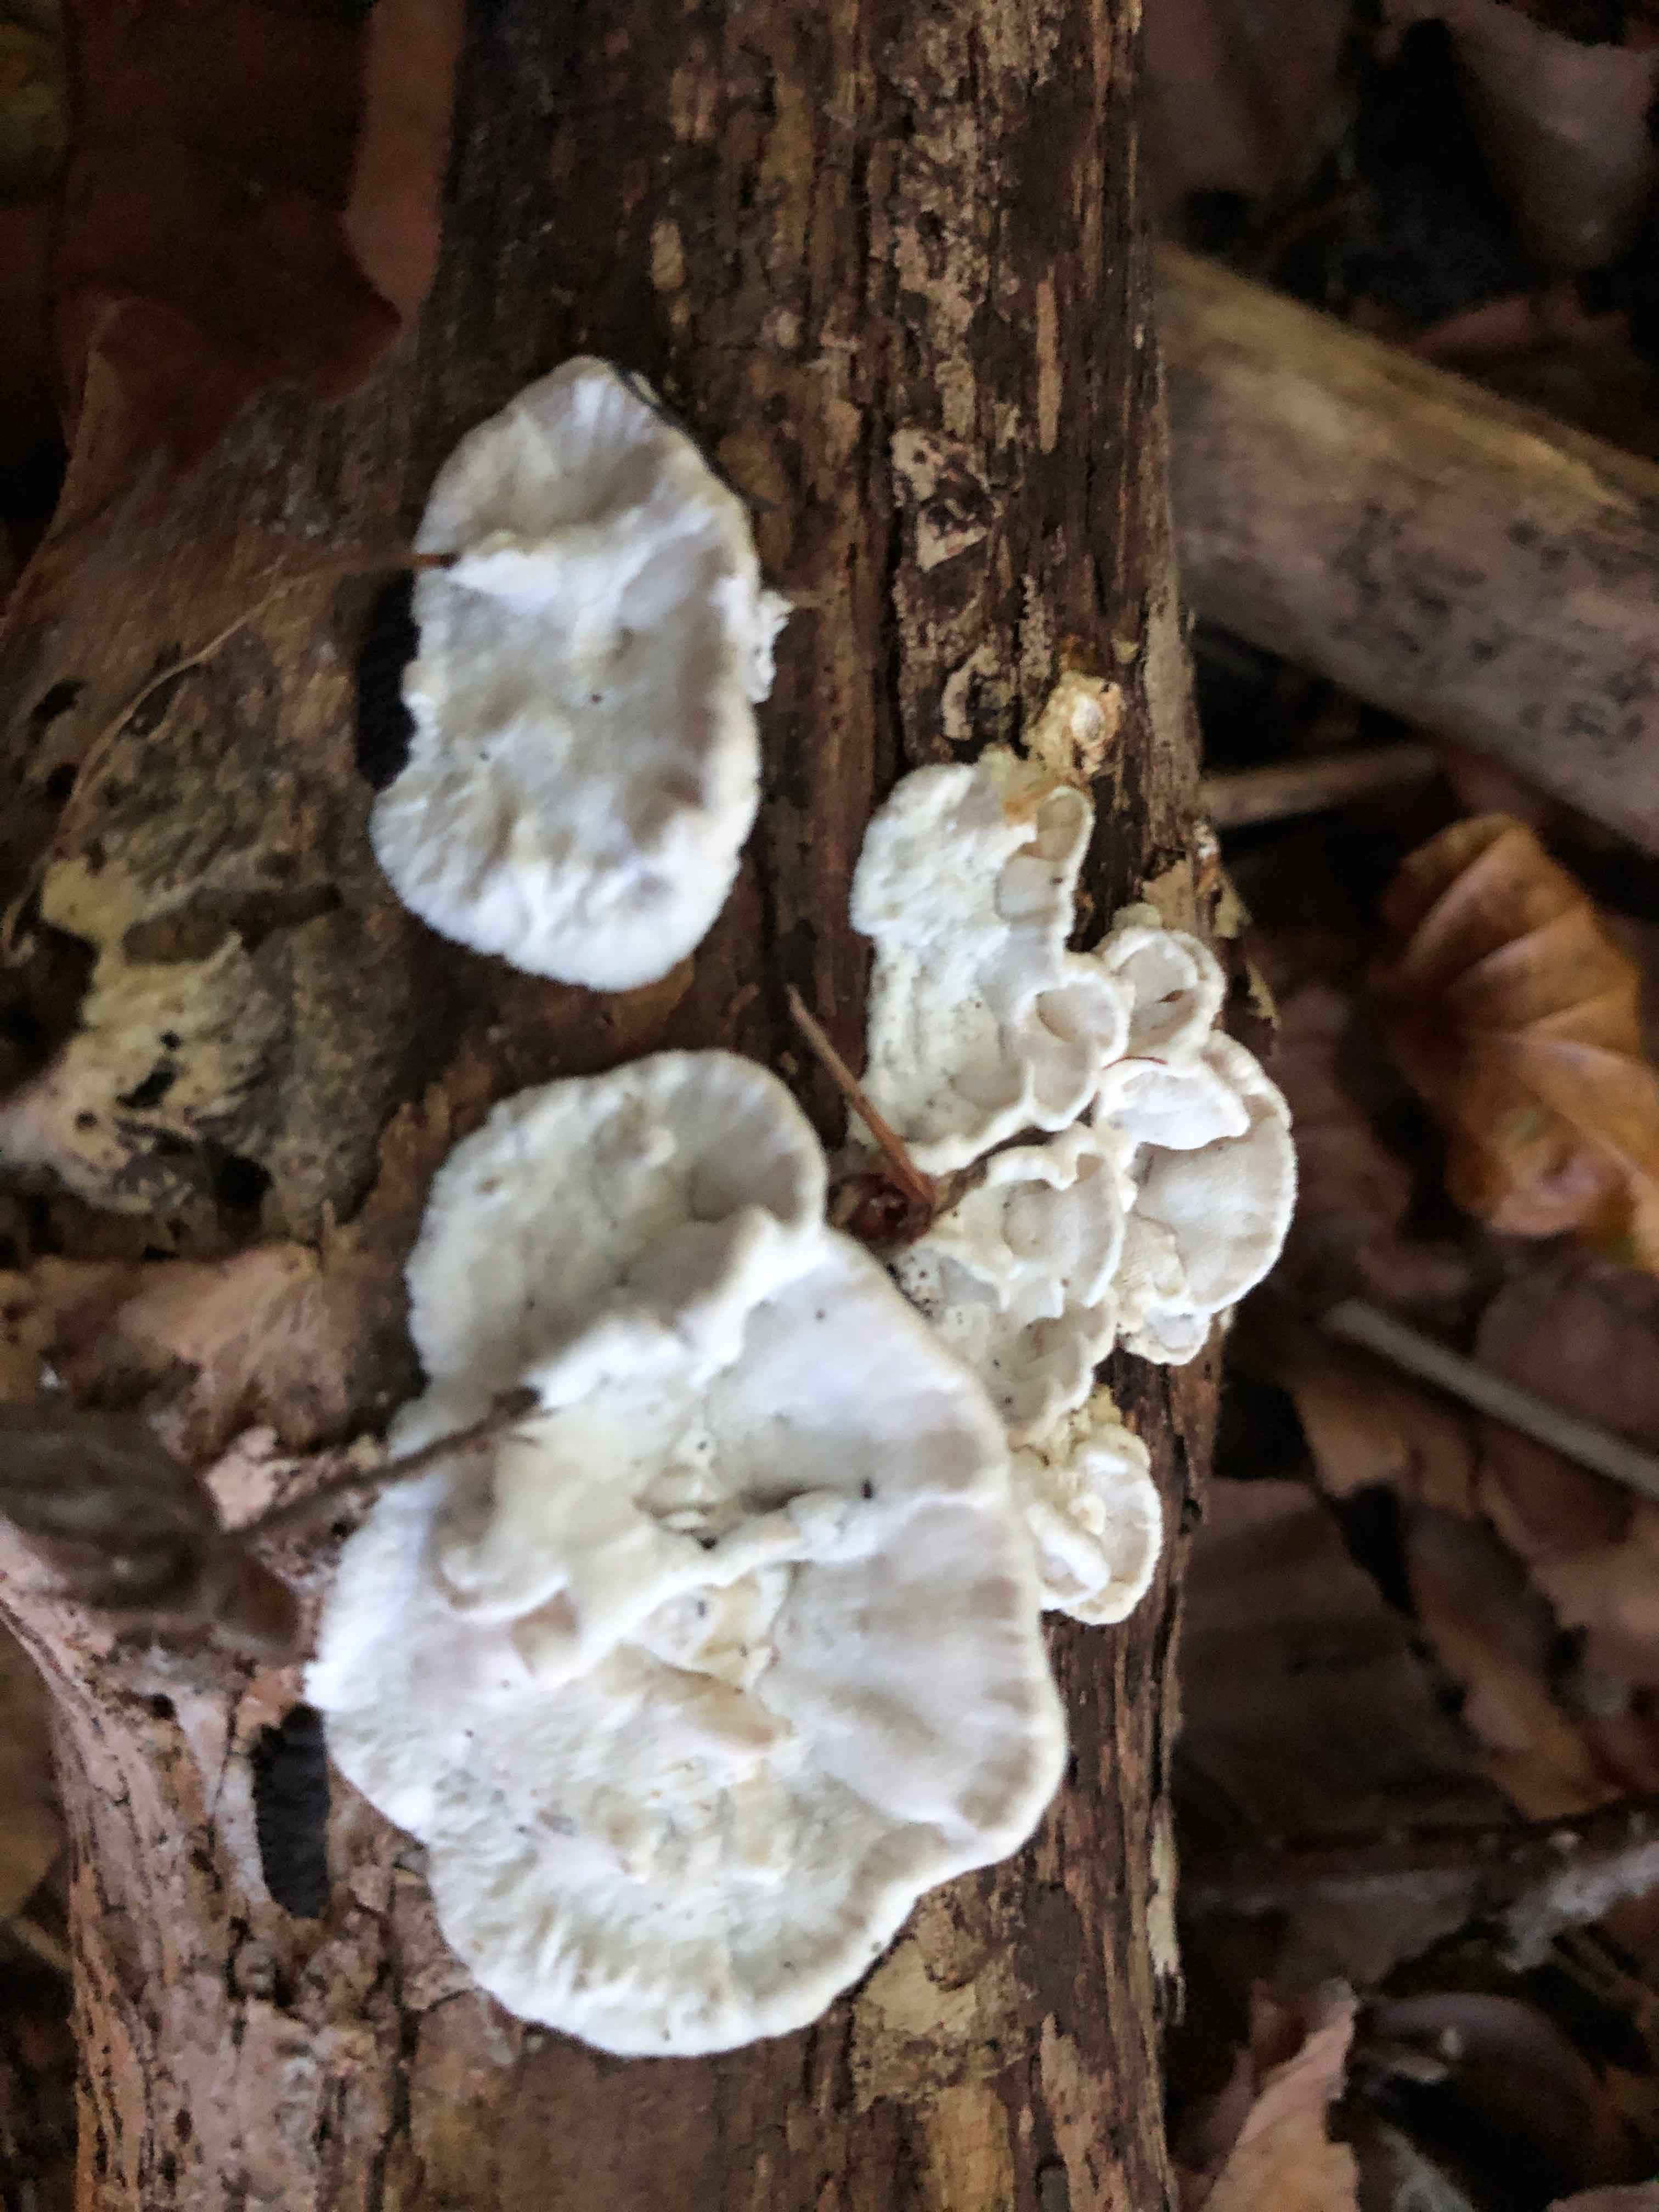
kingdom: Fungi
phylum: Basidiomycota
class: Agaricomycetes
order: Polyporales
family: Incrustoporiaceae
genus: Skeletocutis
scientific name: Skeletocutis nemoralis
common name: stor krystalporesvamp
